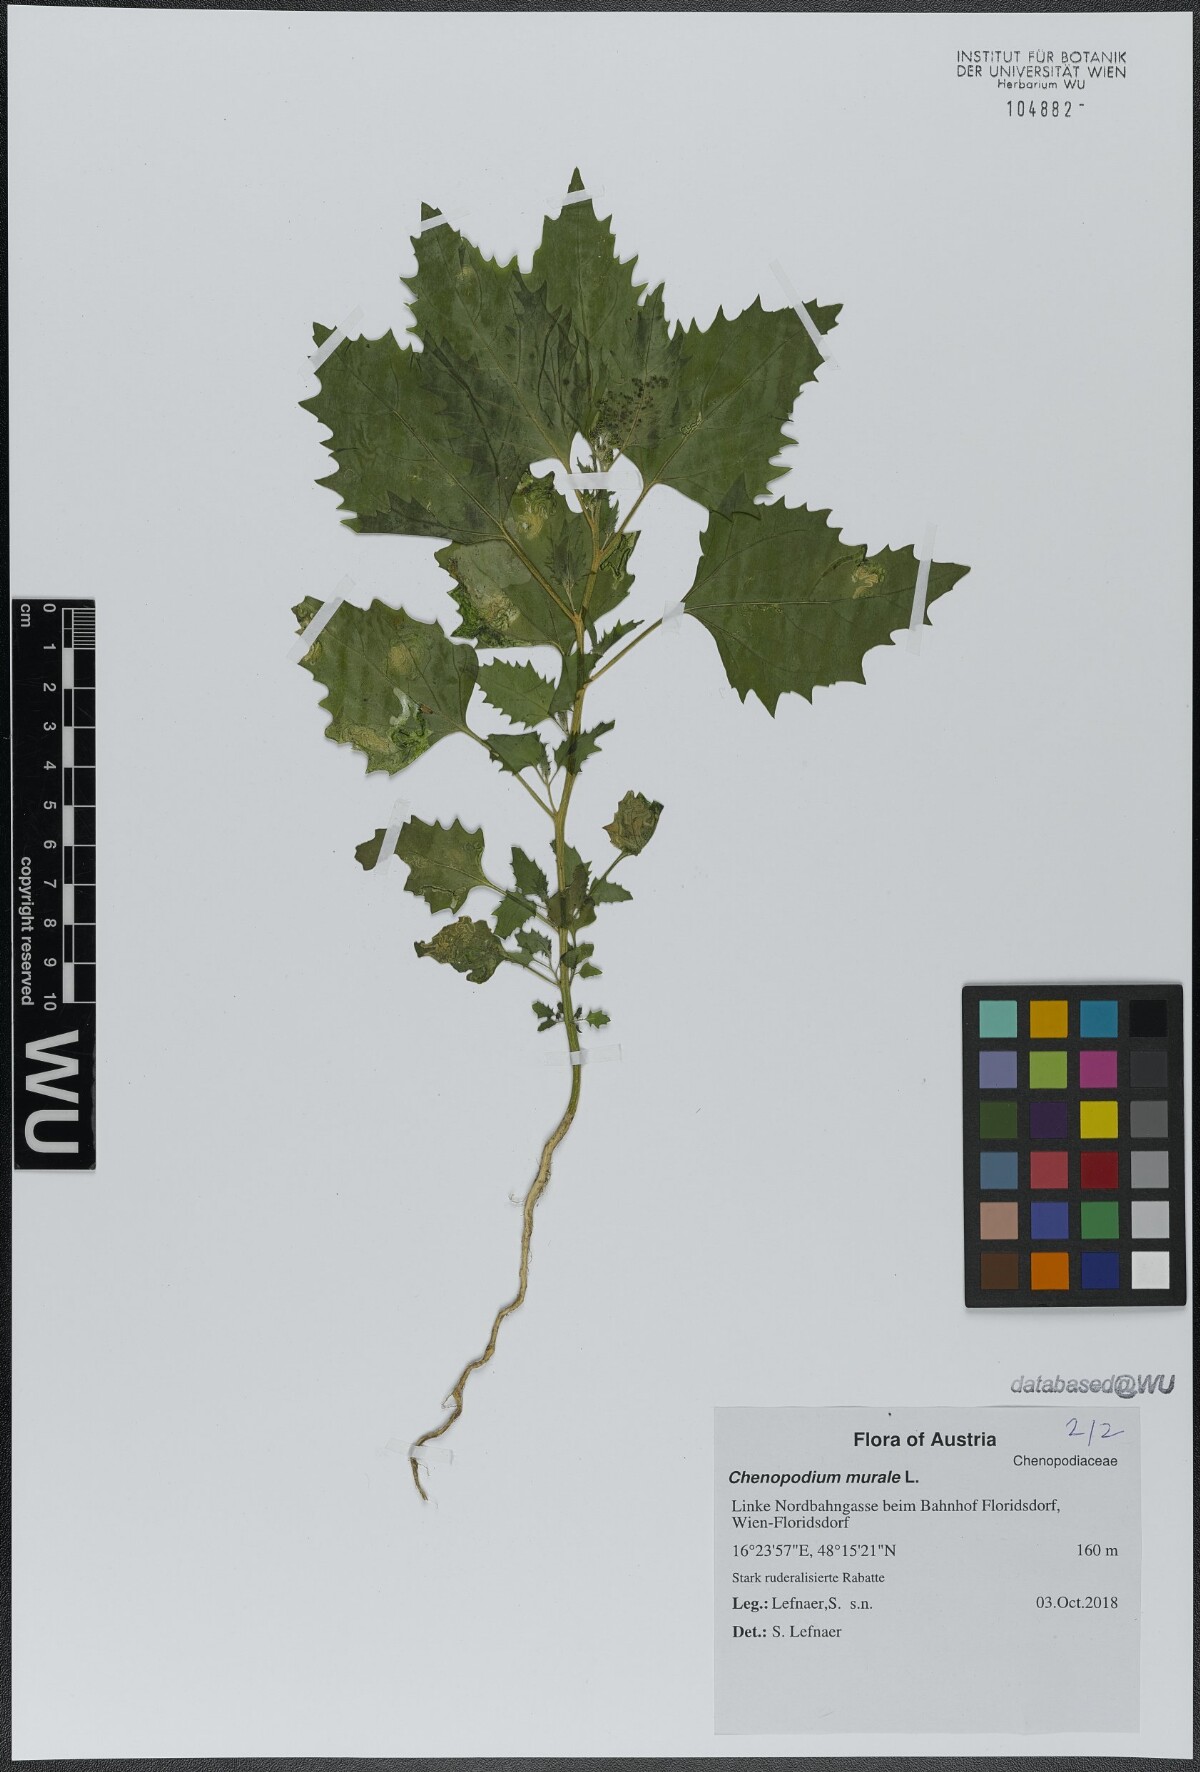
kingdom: Plantae
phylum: Tracheophyta
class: Magnoliopsida
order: Caryophyllales
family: Amaranthaceae
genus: Chenopodiastrum
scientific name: Chenopodiastrum murale
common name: Sowbane
